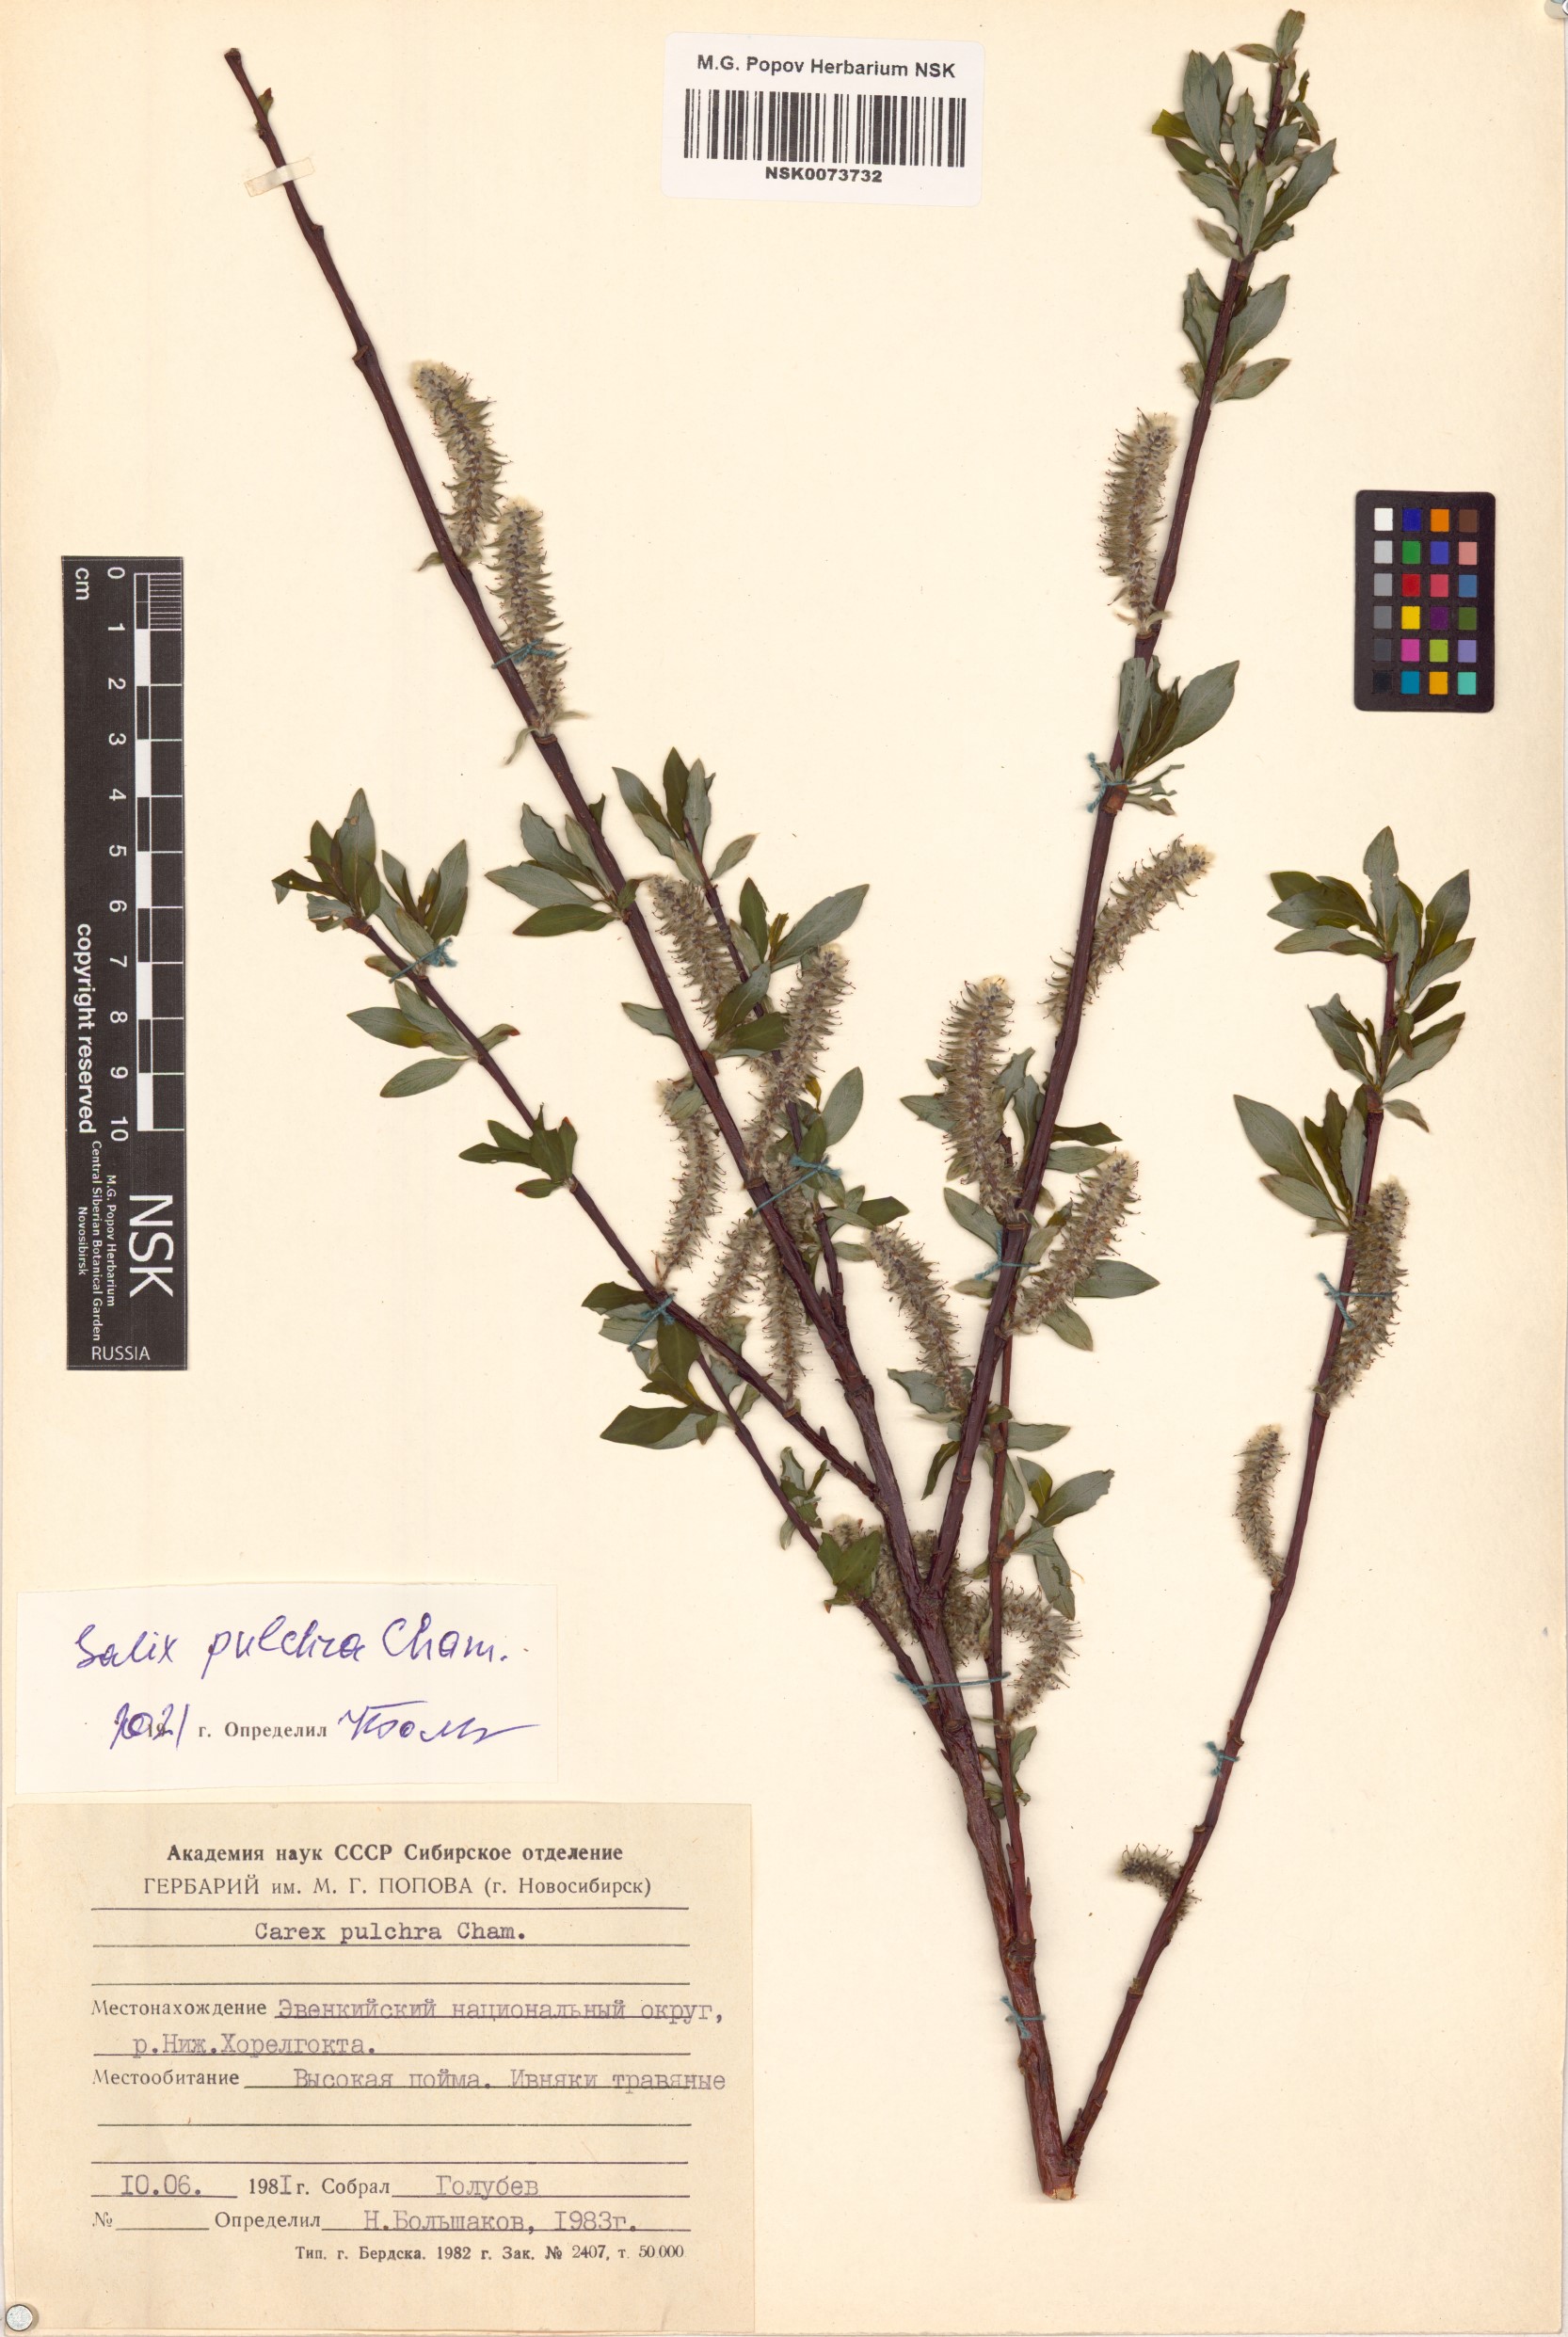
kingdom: Plantae
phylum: Tracheophyta
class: Magnoliopsida
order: Malpighiales
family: Salicaceae
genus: Salix
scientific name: Salix pulchra
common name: Diamond-leaved willow
